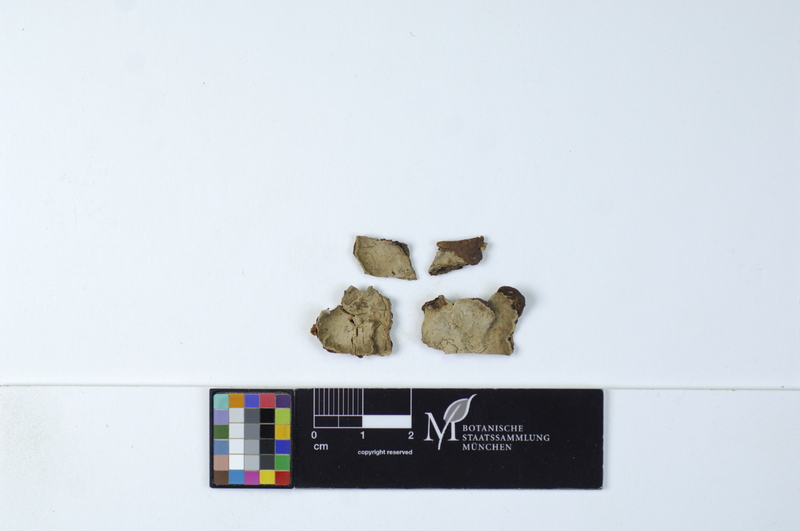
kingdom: Fungi
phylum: Basidiomycota
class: Agaricomycetes
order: Russulales
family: Echinodontiaceae
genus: Amylostereum
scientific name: Amylostereum chailletii
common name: Powdered duster
